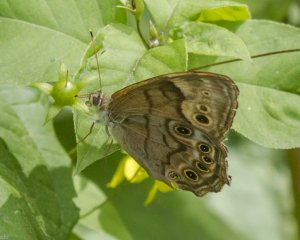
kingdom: Animalia
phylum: Arthropoda
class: Insecta
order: Lepidoptera
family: Nymphalidae
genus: Lethe
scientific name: Lethe anthedon
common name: Northern Pearly-Eye
